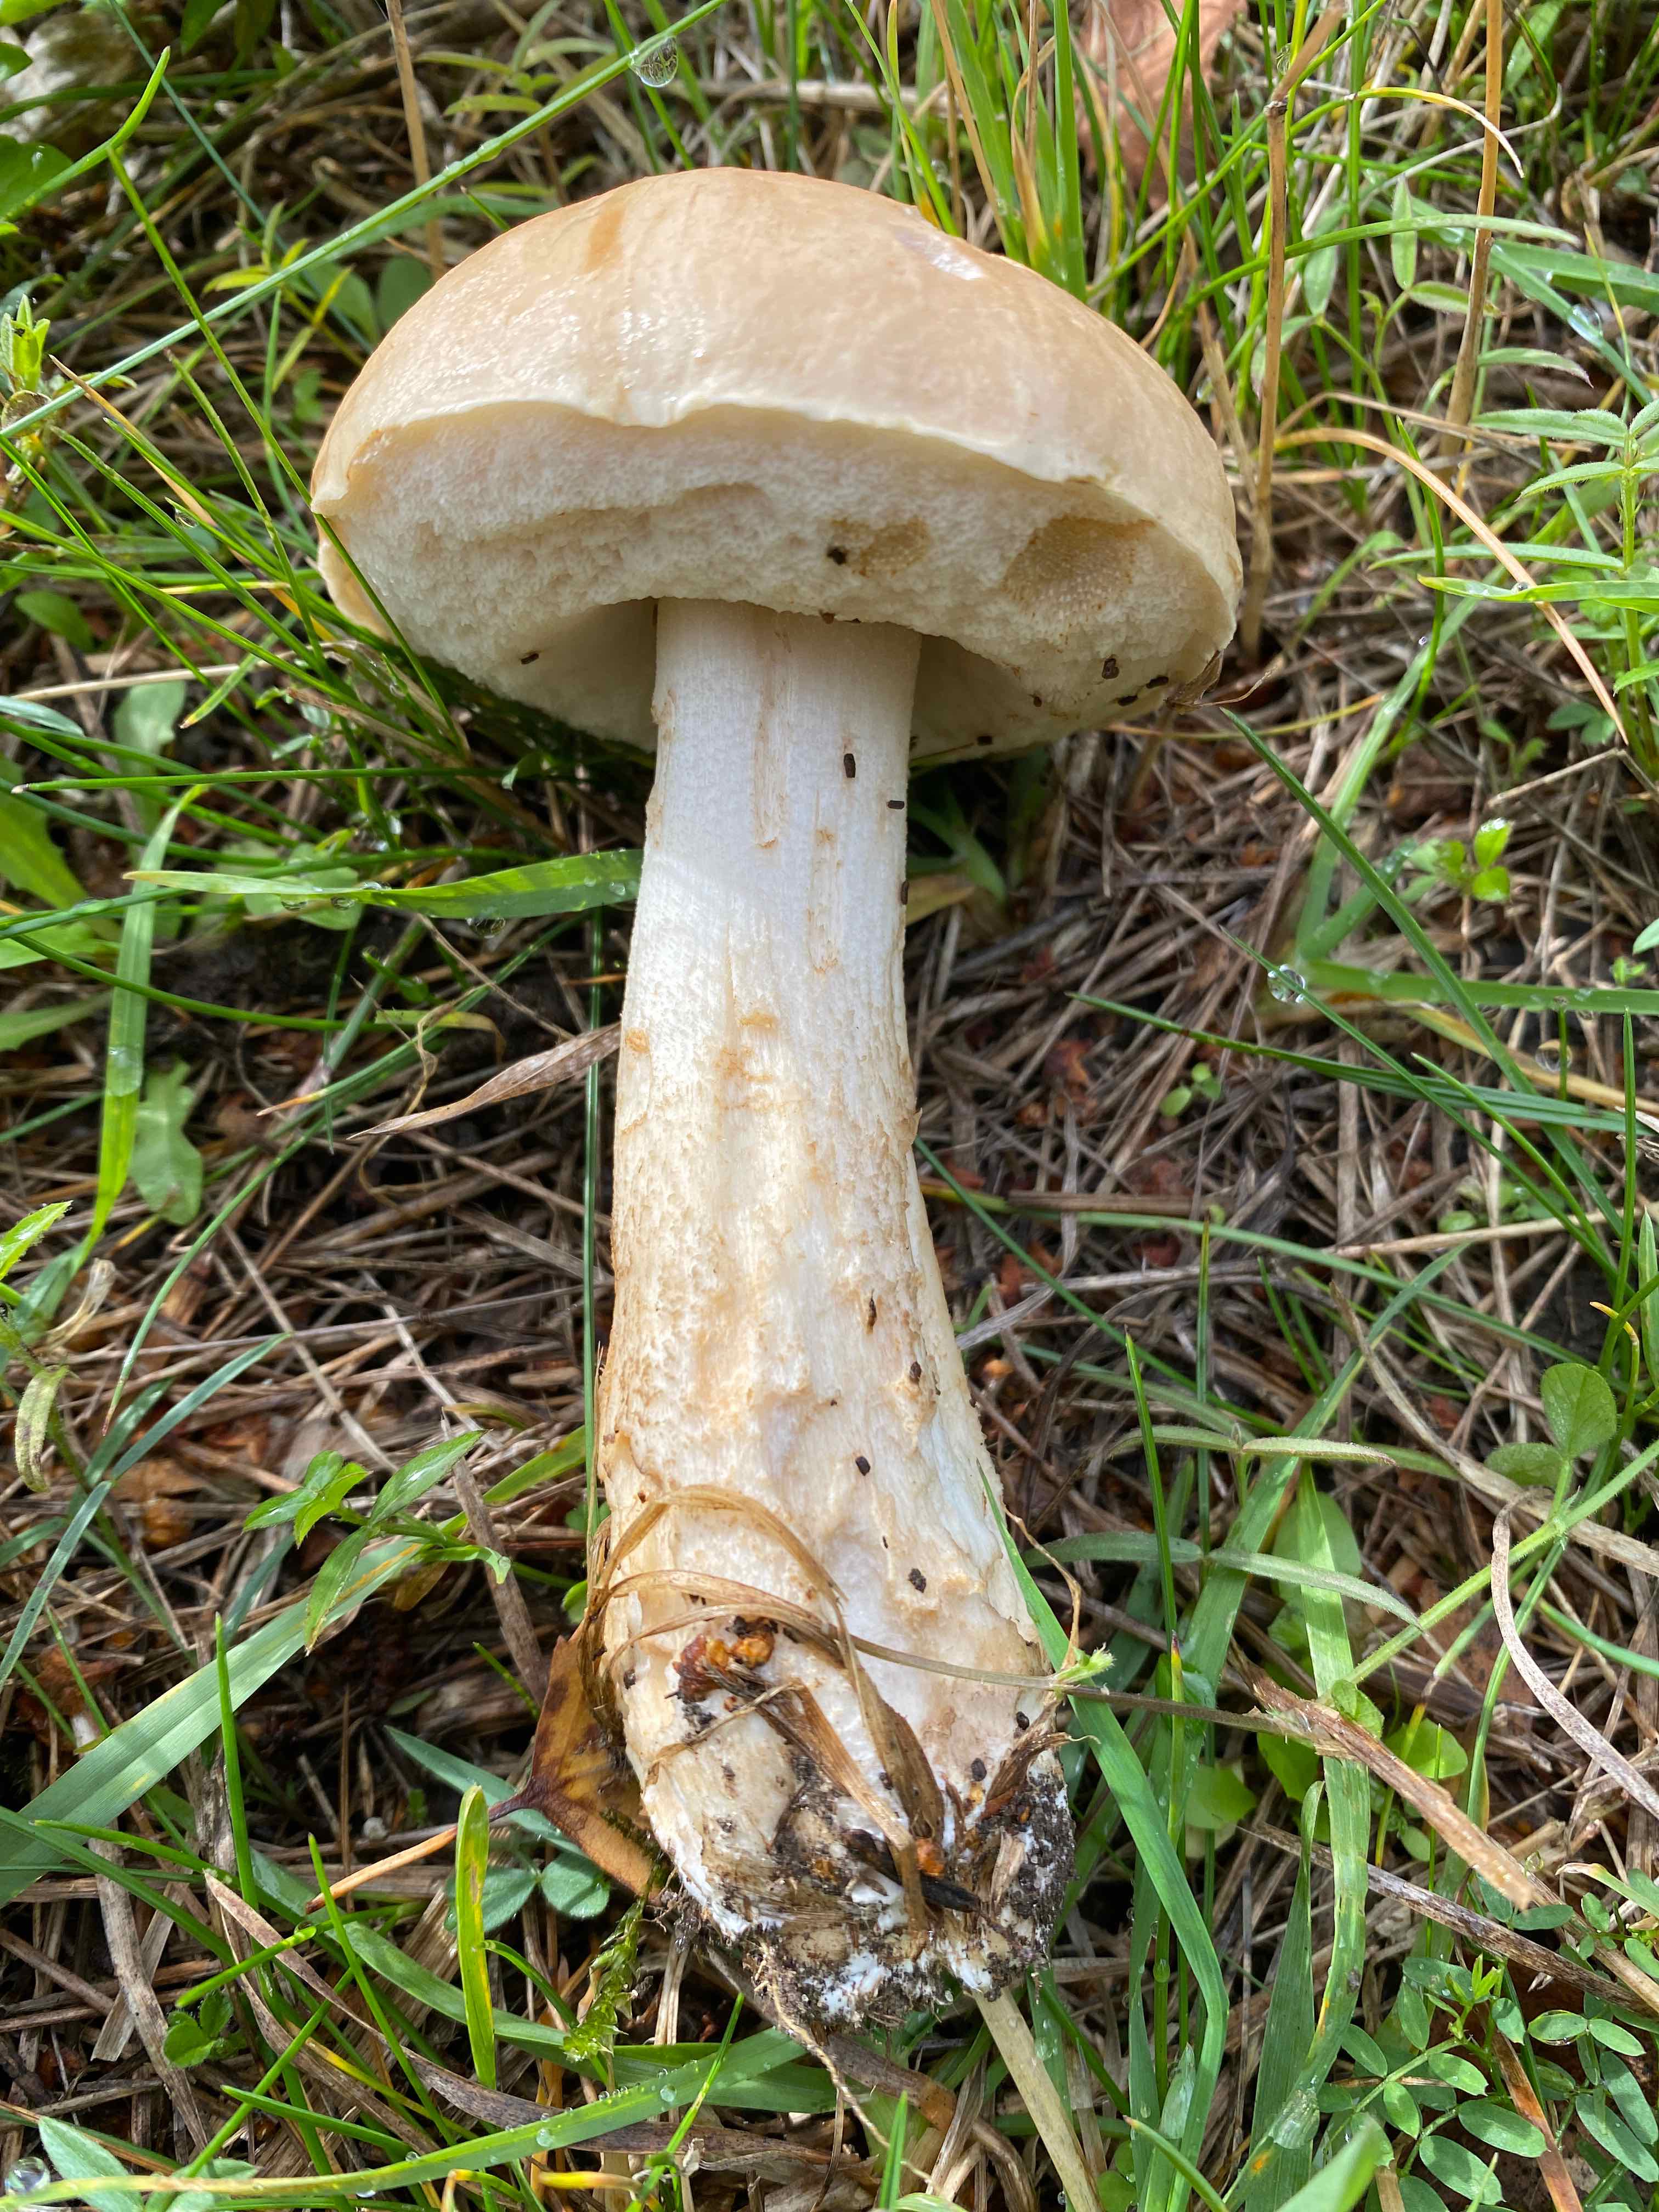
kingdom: Fungi
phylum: Basidiomycota
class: Agaricomycetes
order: Boletales
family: Boletaceae
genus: Leccinum
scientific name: Leccinum
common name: skælrørhat
